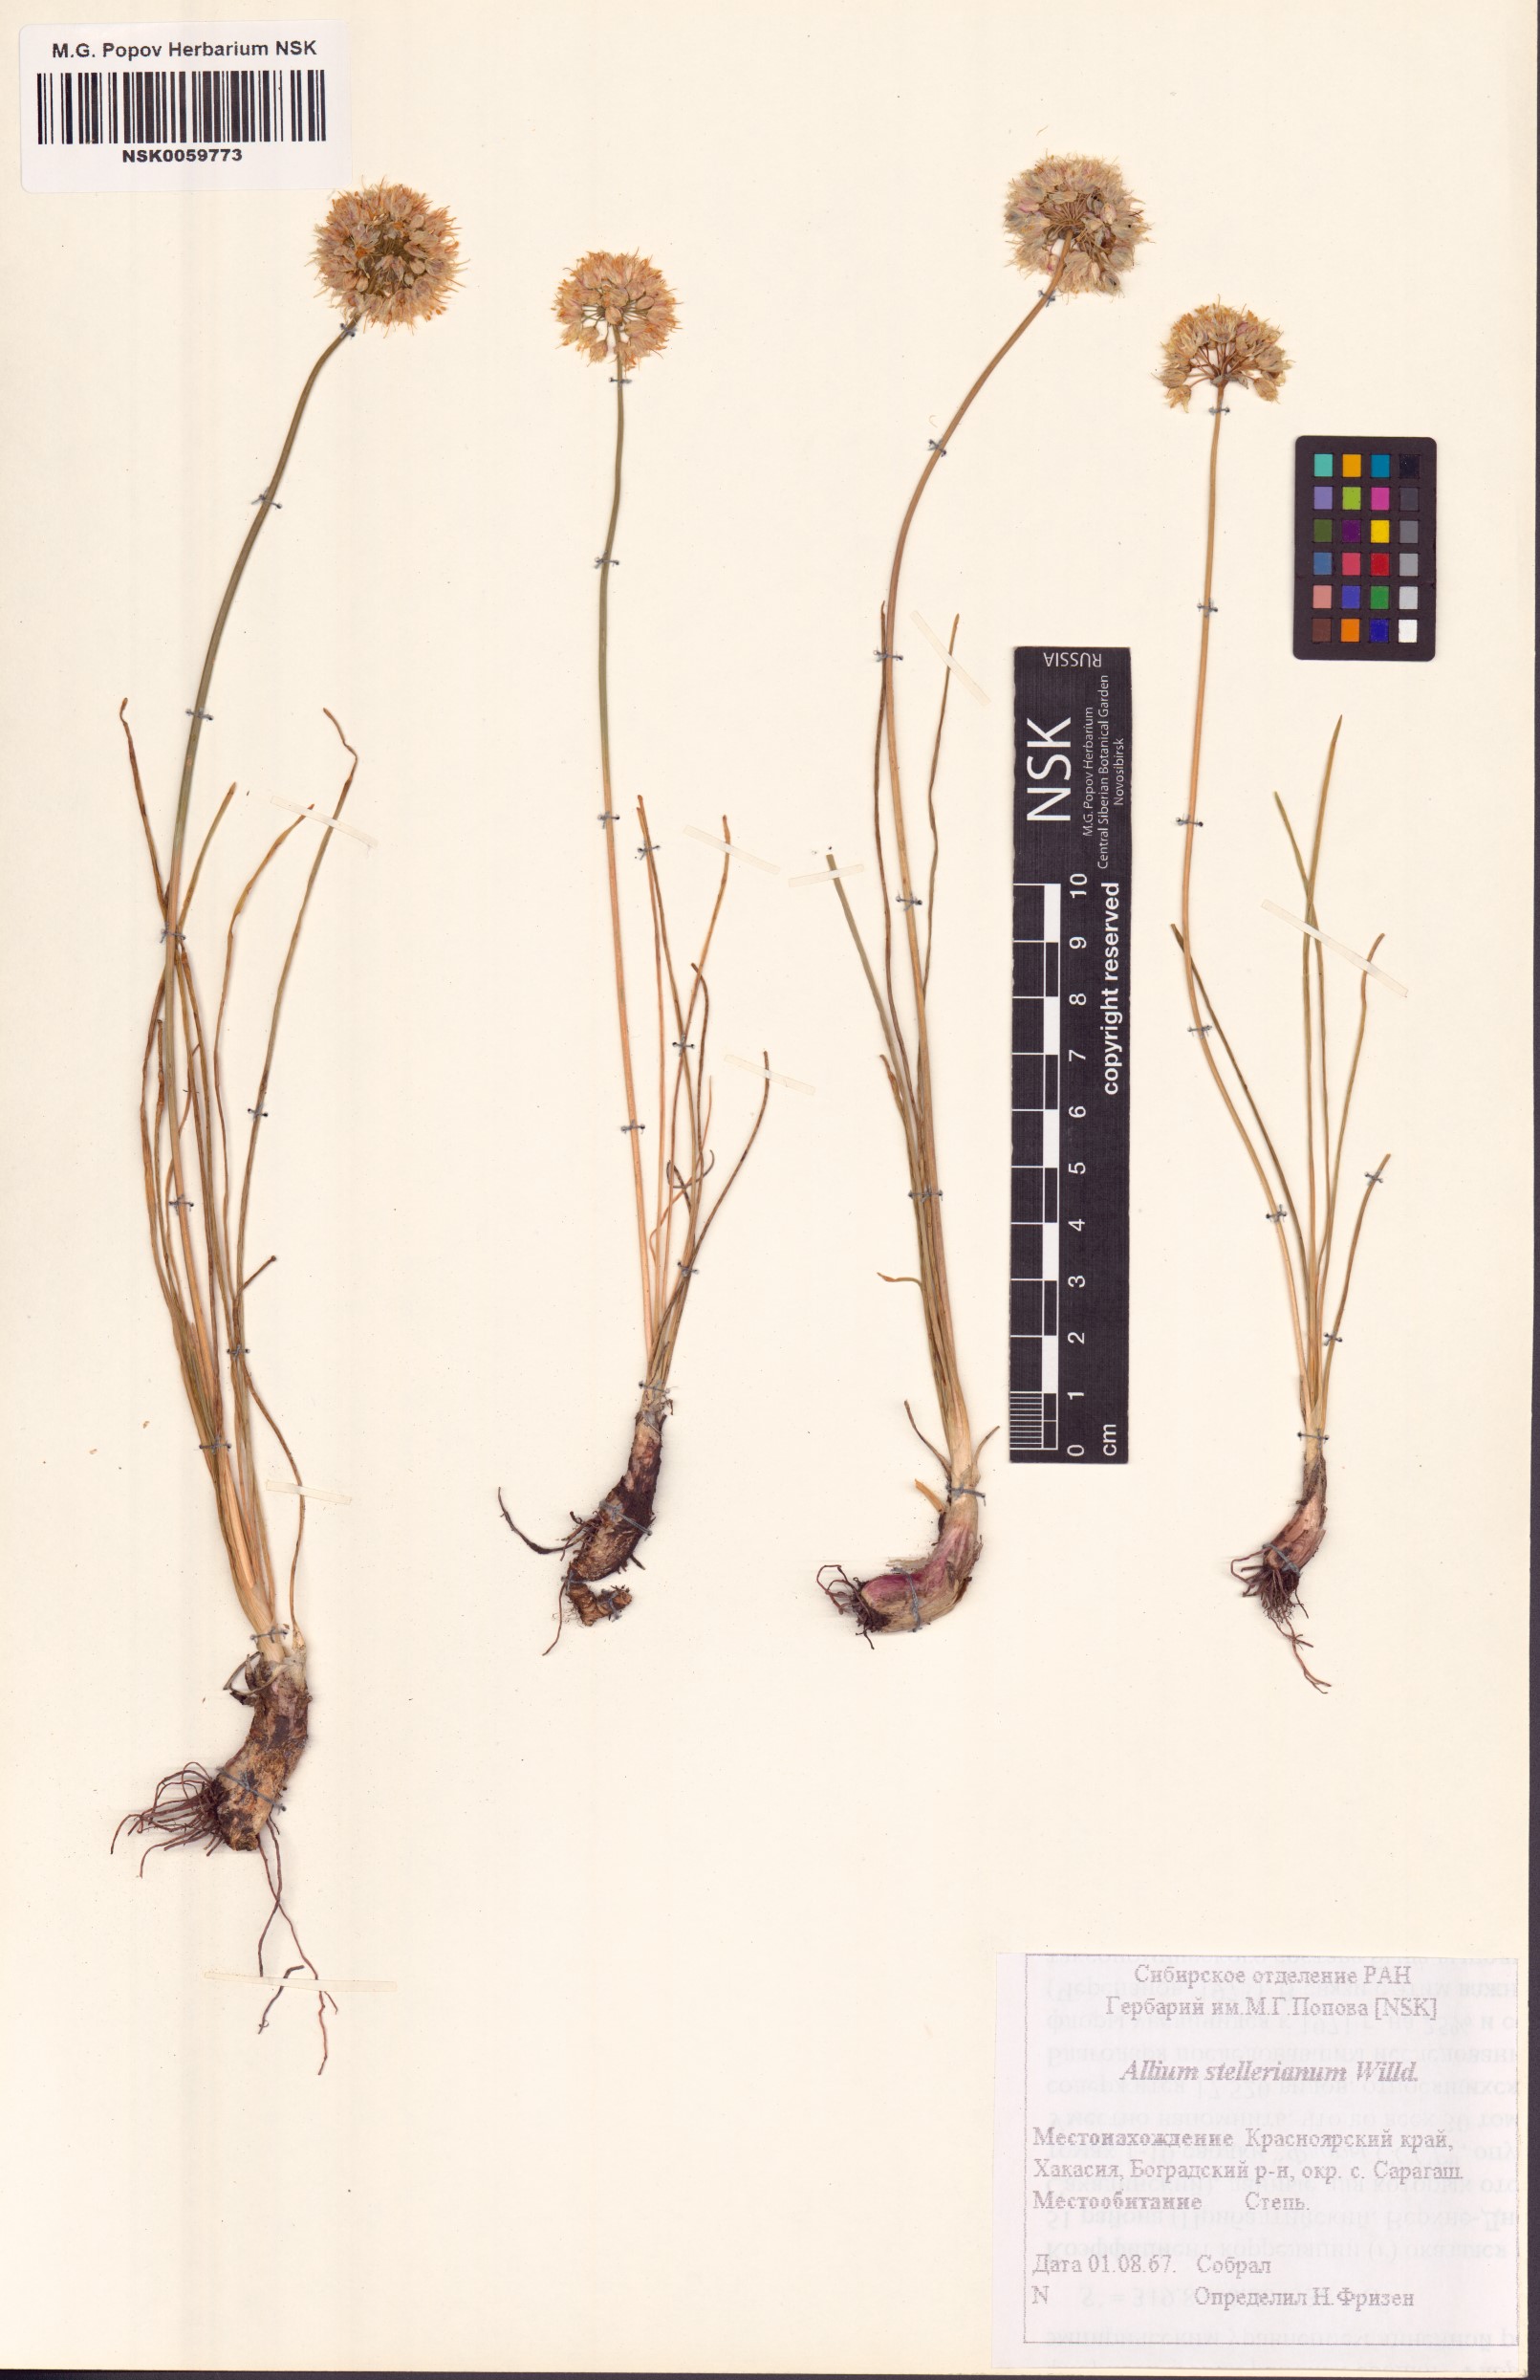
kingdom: Plantae
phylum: Tracheophyta
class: Liliopsida
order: Asparagales
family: Amaryllidaceae
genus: Allium
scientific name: Allium stellerianum
